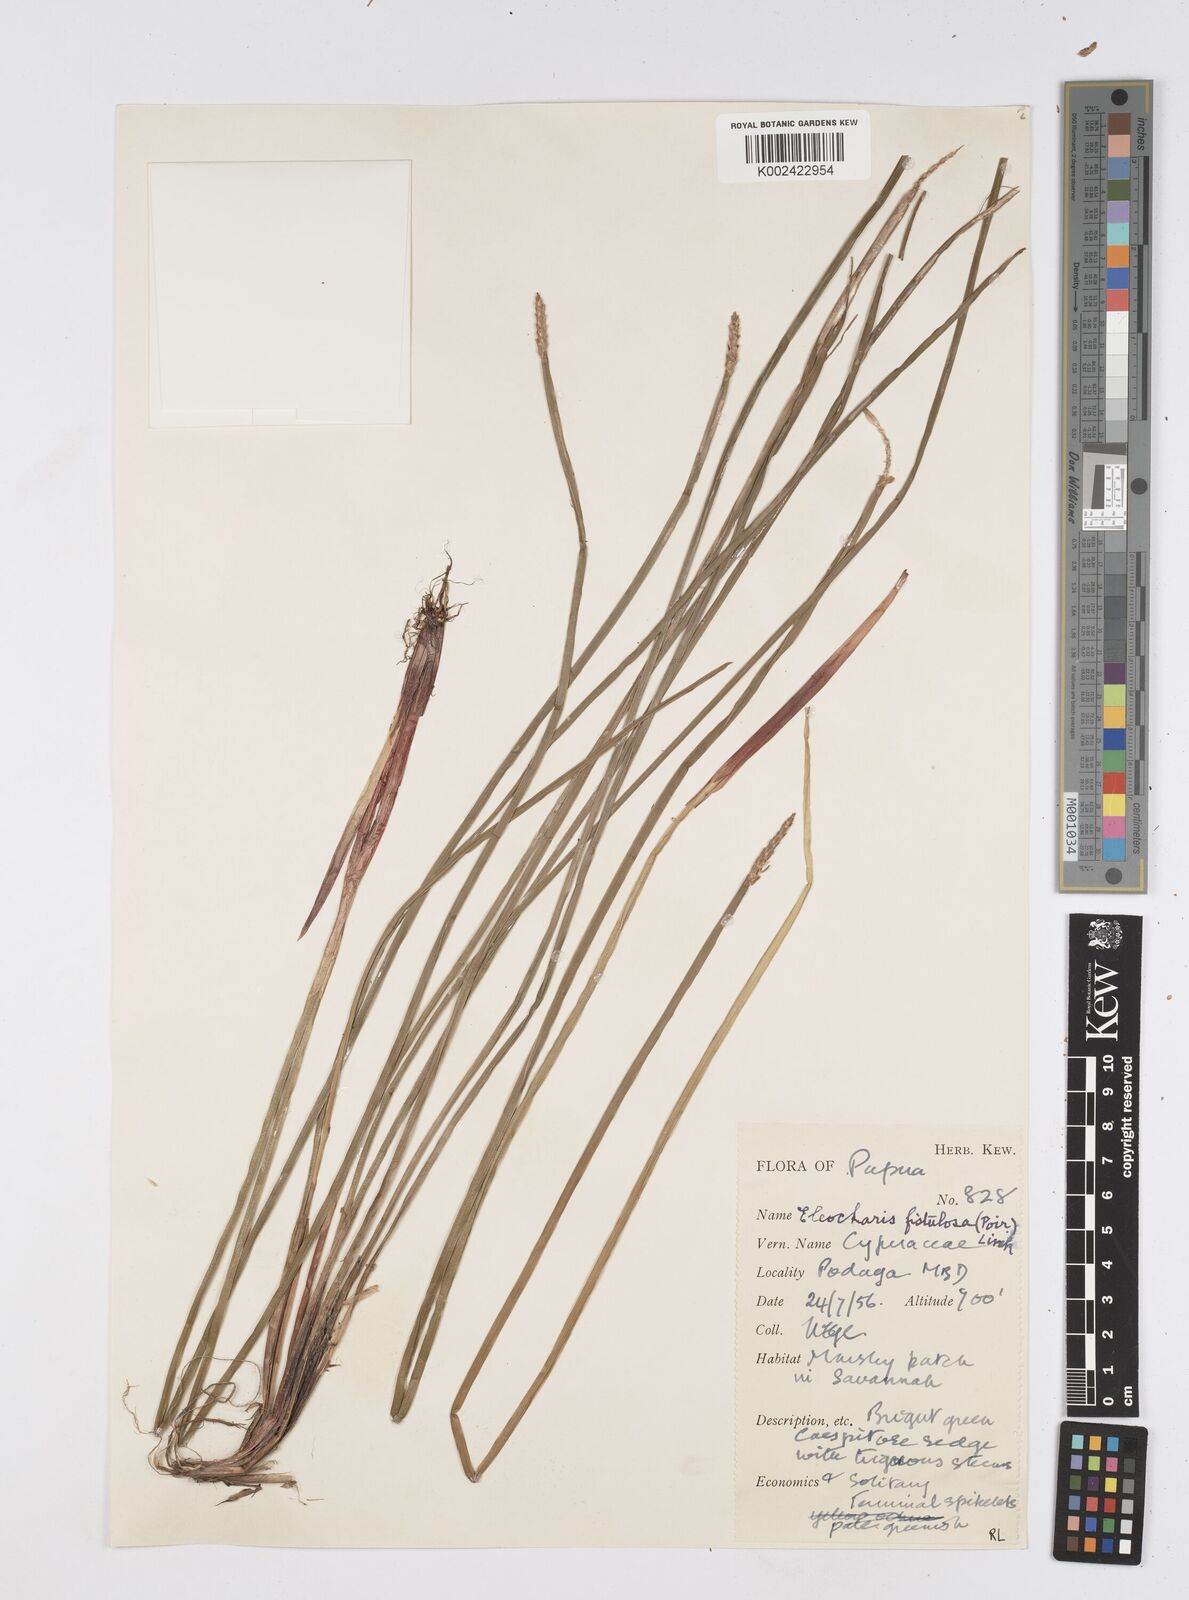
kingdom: Plantae
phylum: Tracheophyta
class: Liliopsida
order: Poales
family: Cyperaceae
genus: Eleocharis
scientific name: Eleocharis acutangula
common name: Acute spikerush
